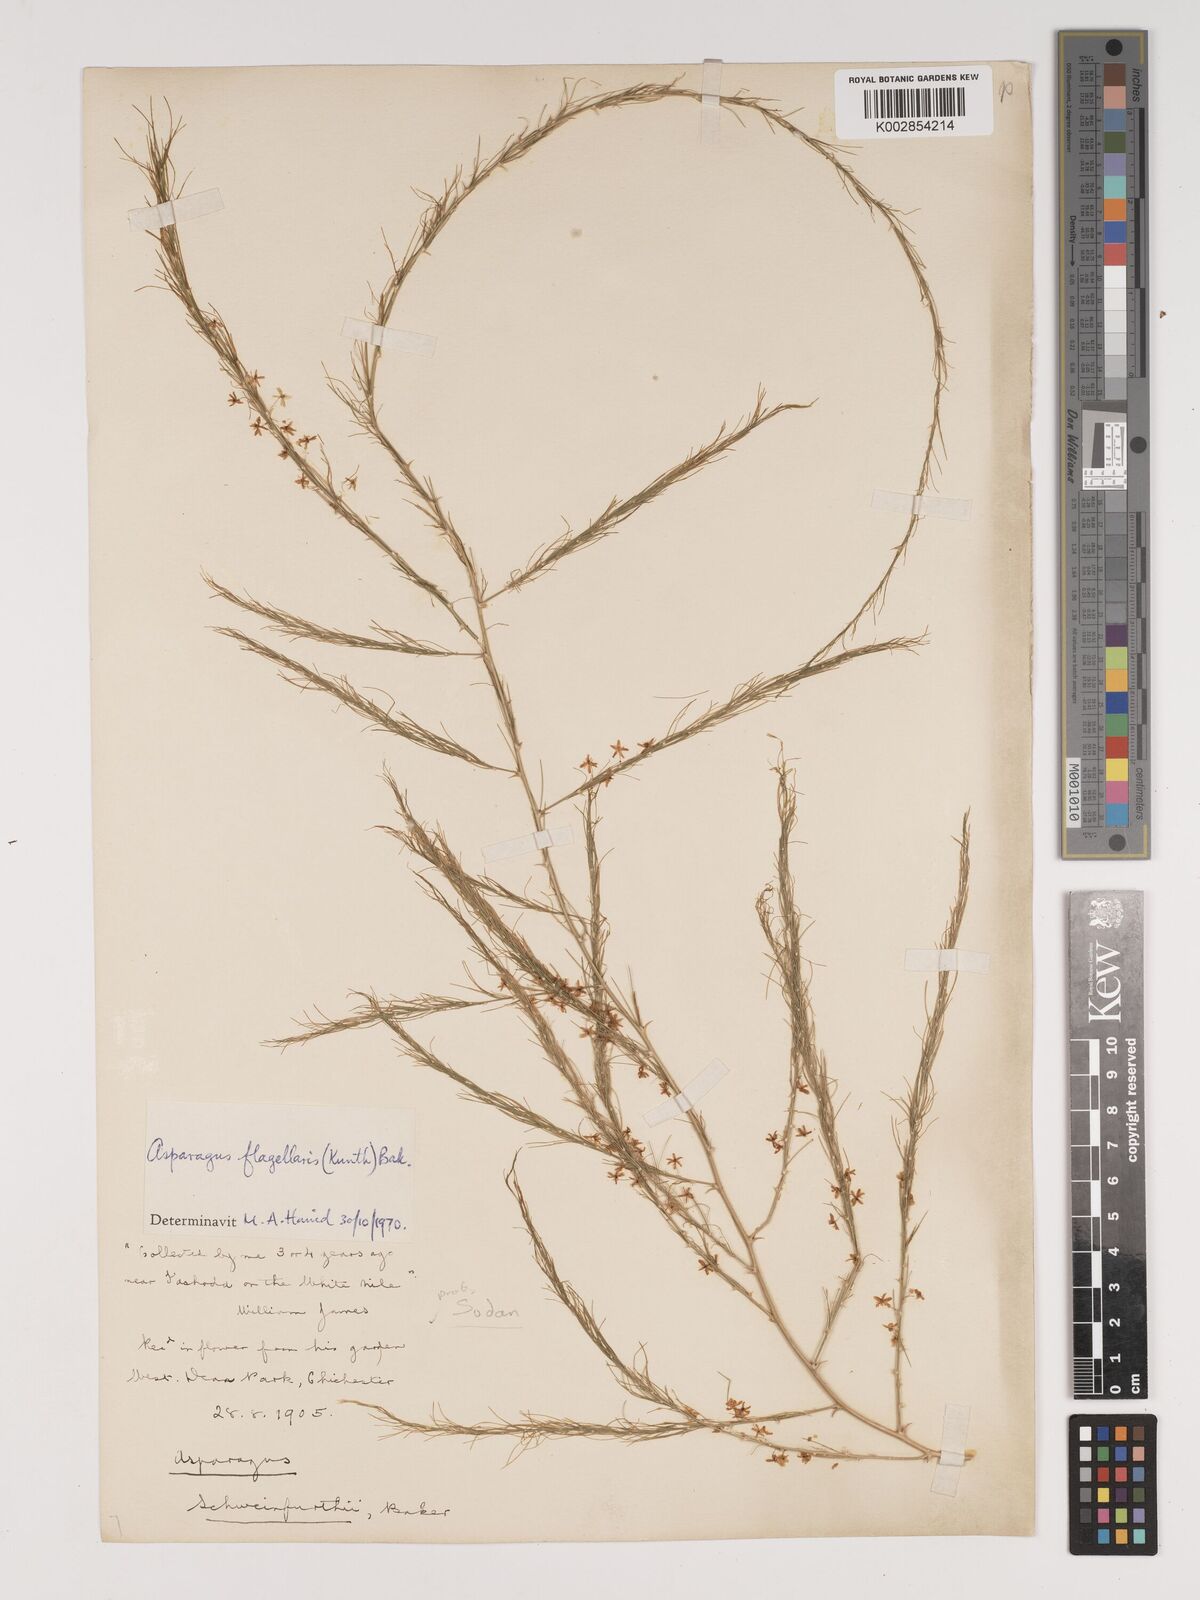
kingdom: Plantae
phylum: Tracheophyta
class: Liliopsida
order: Asparagales
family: Asparagaceae
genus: Asparagus
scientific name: Asparagus flagellaris
